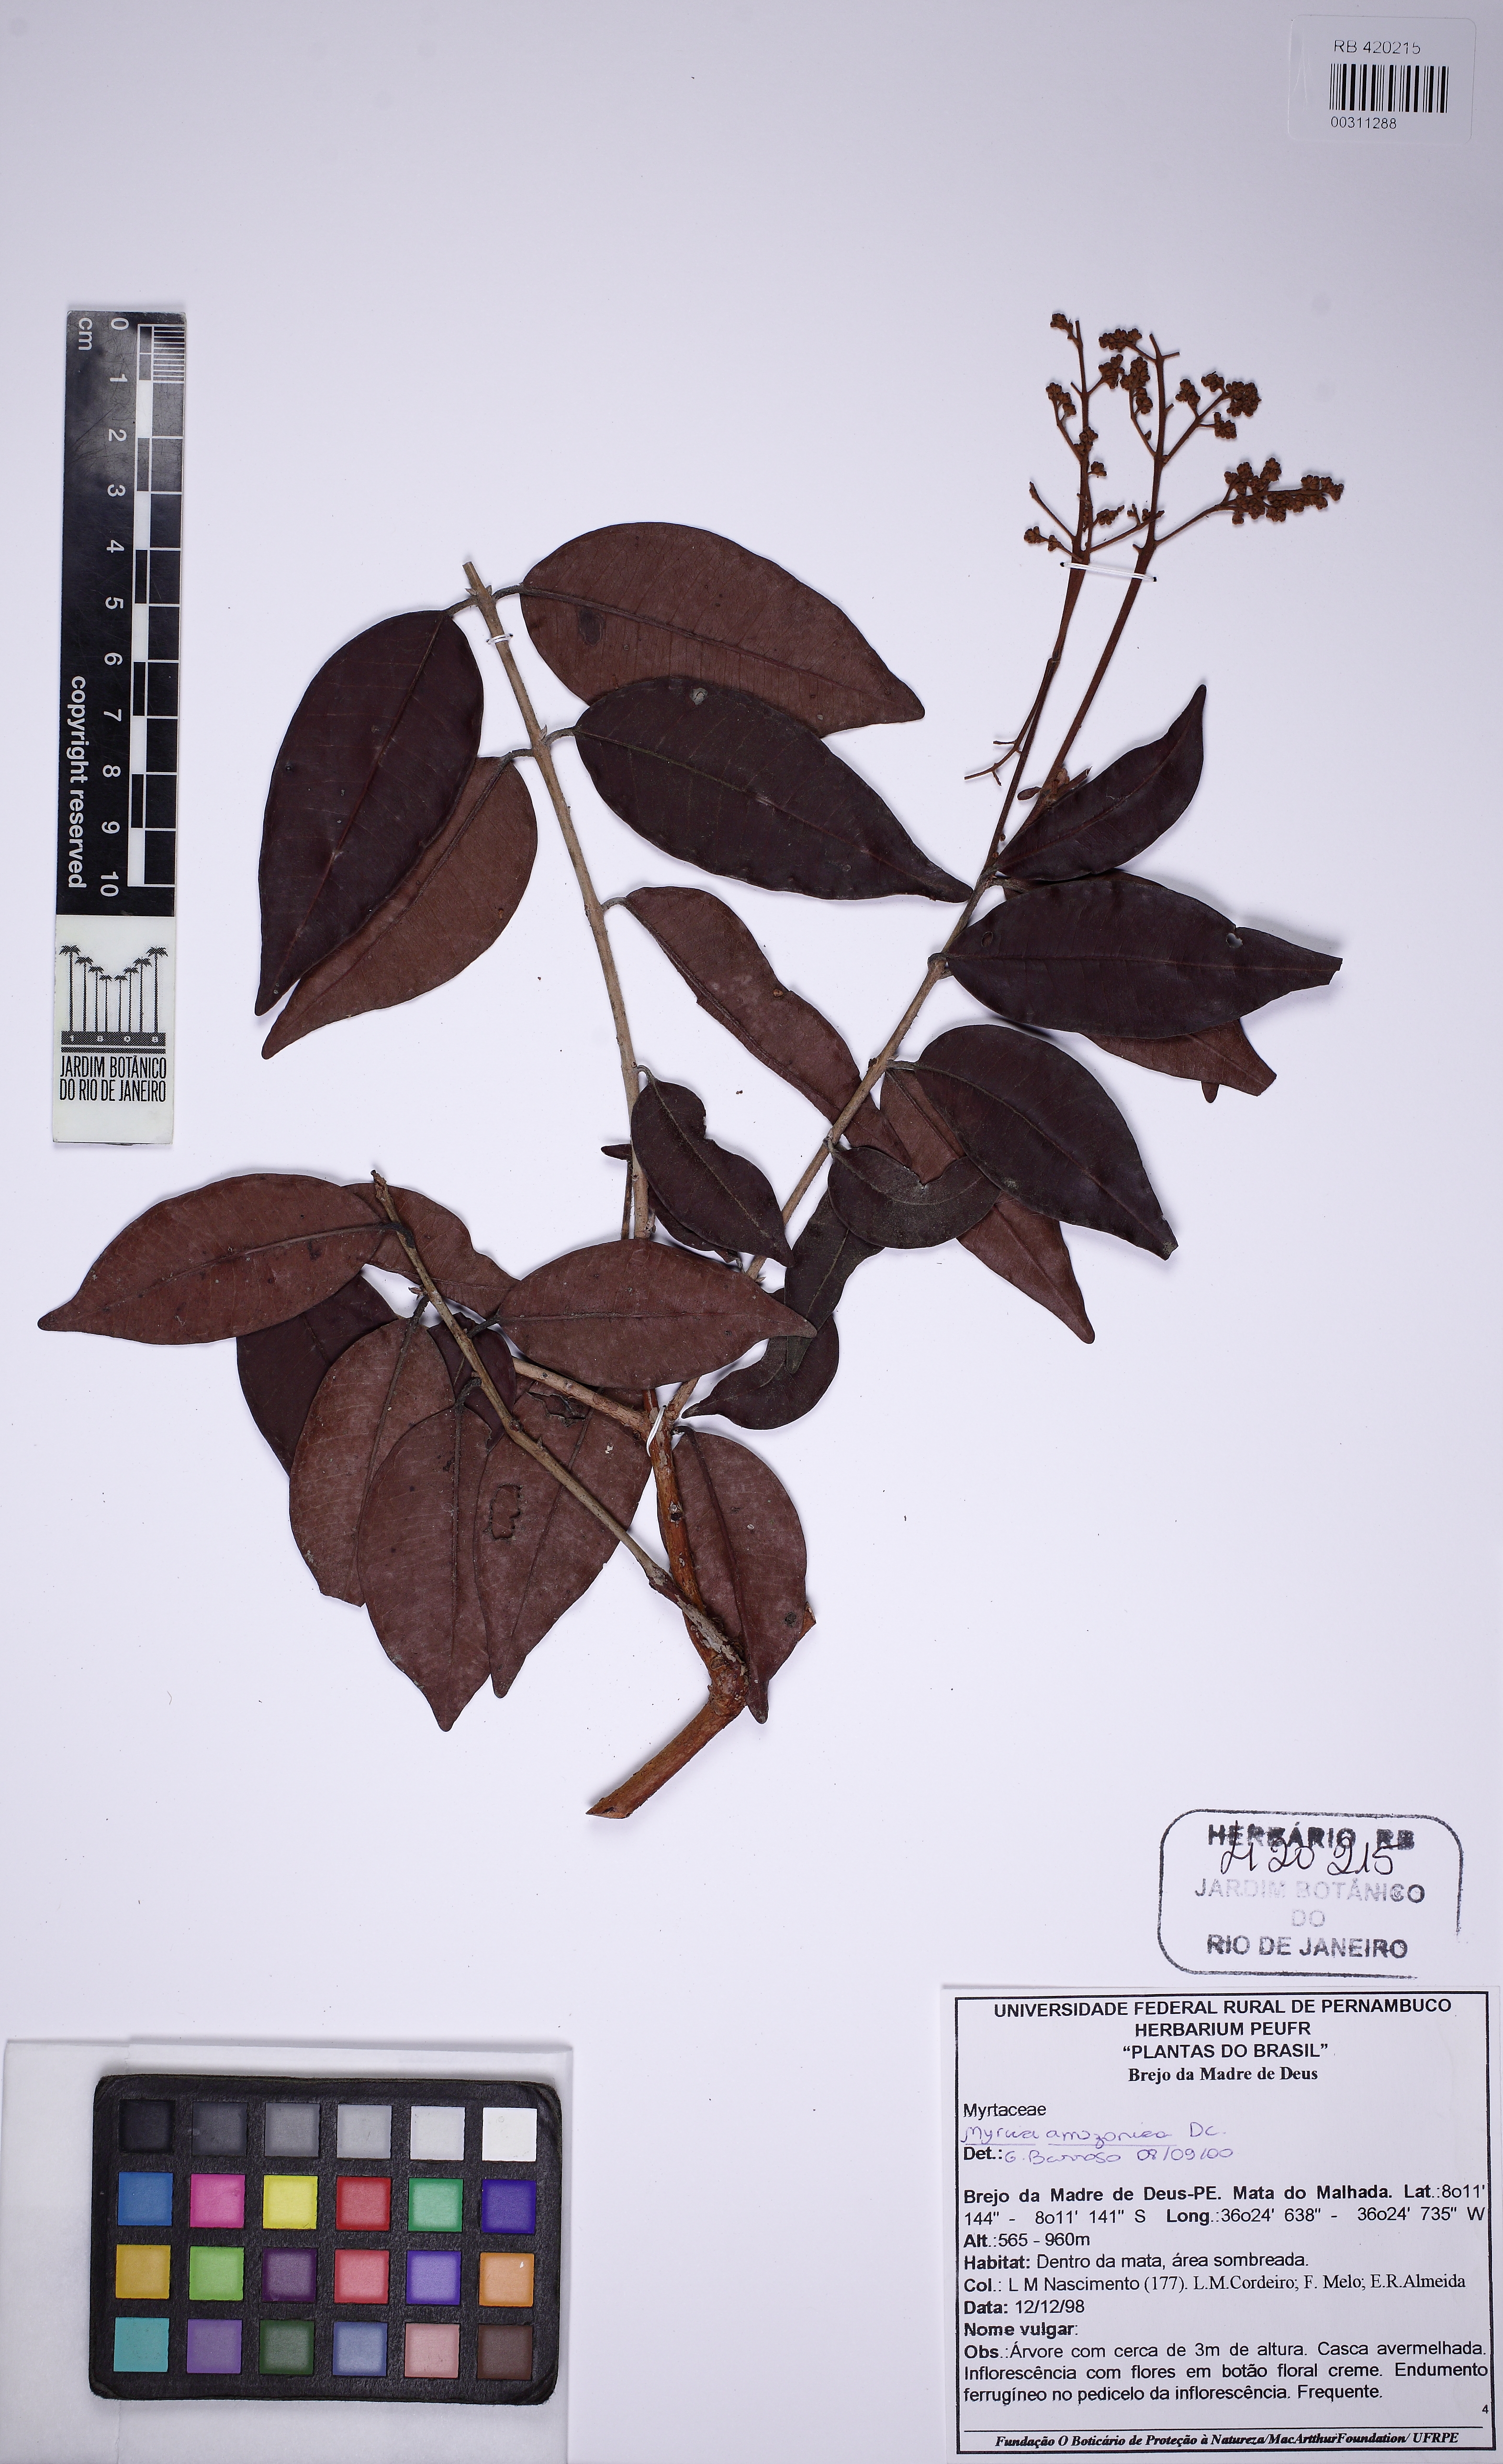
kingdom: Plantae
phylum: Tracheophyta
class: Magnoliopsida
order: Myrtales
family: Myrtaceae
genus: Myrcia
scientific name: Myrcia amazonica
